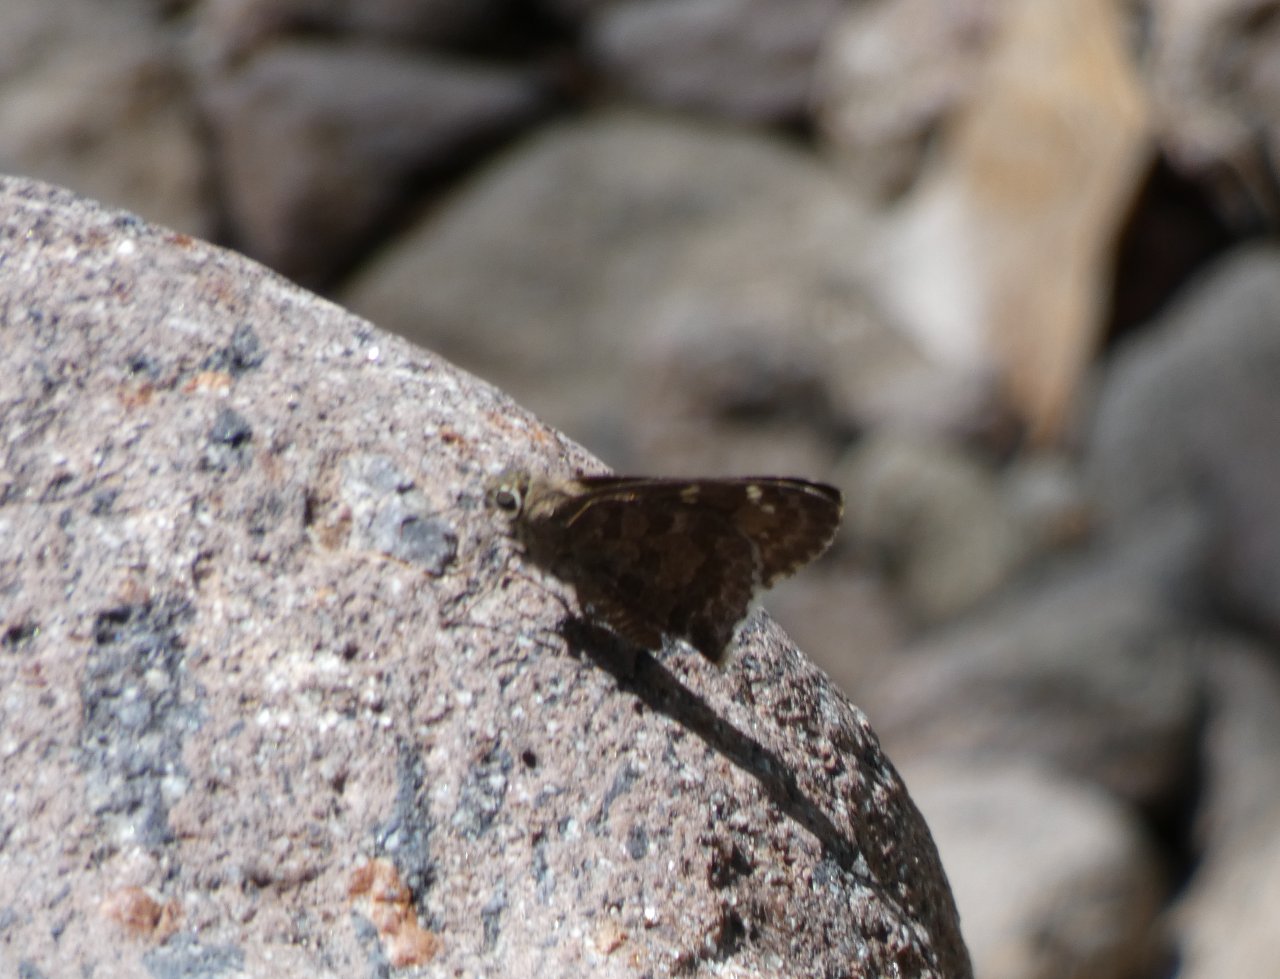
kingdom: Animalia
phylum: Arthropoda
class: Insecta
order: Lepidoptera
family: Hesperiidae
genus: Cogia
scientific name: Cogia hippalus
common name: Acacia Skipper
